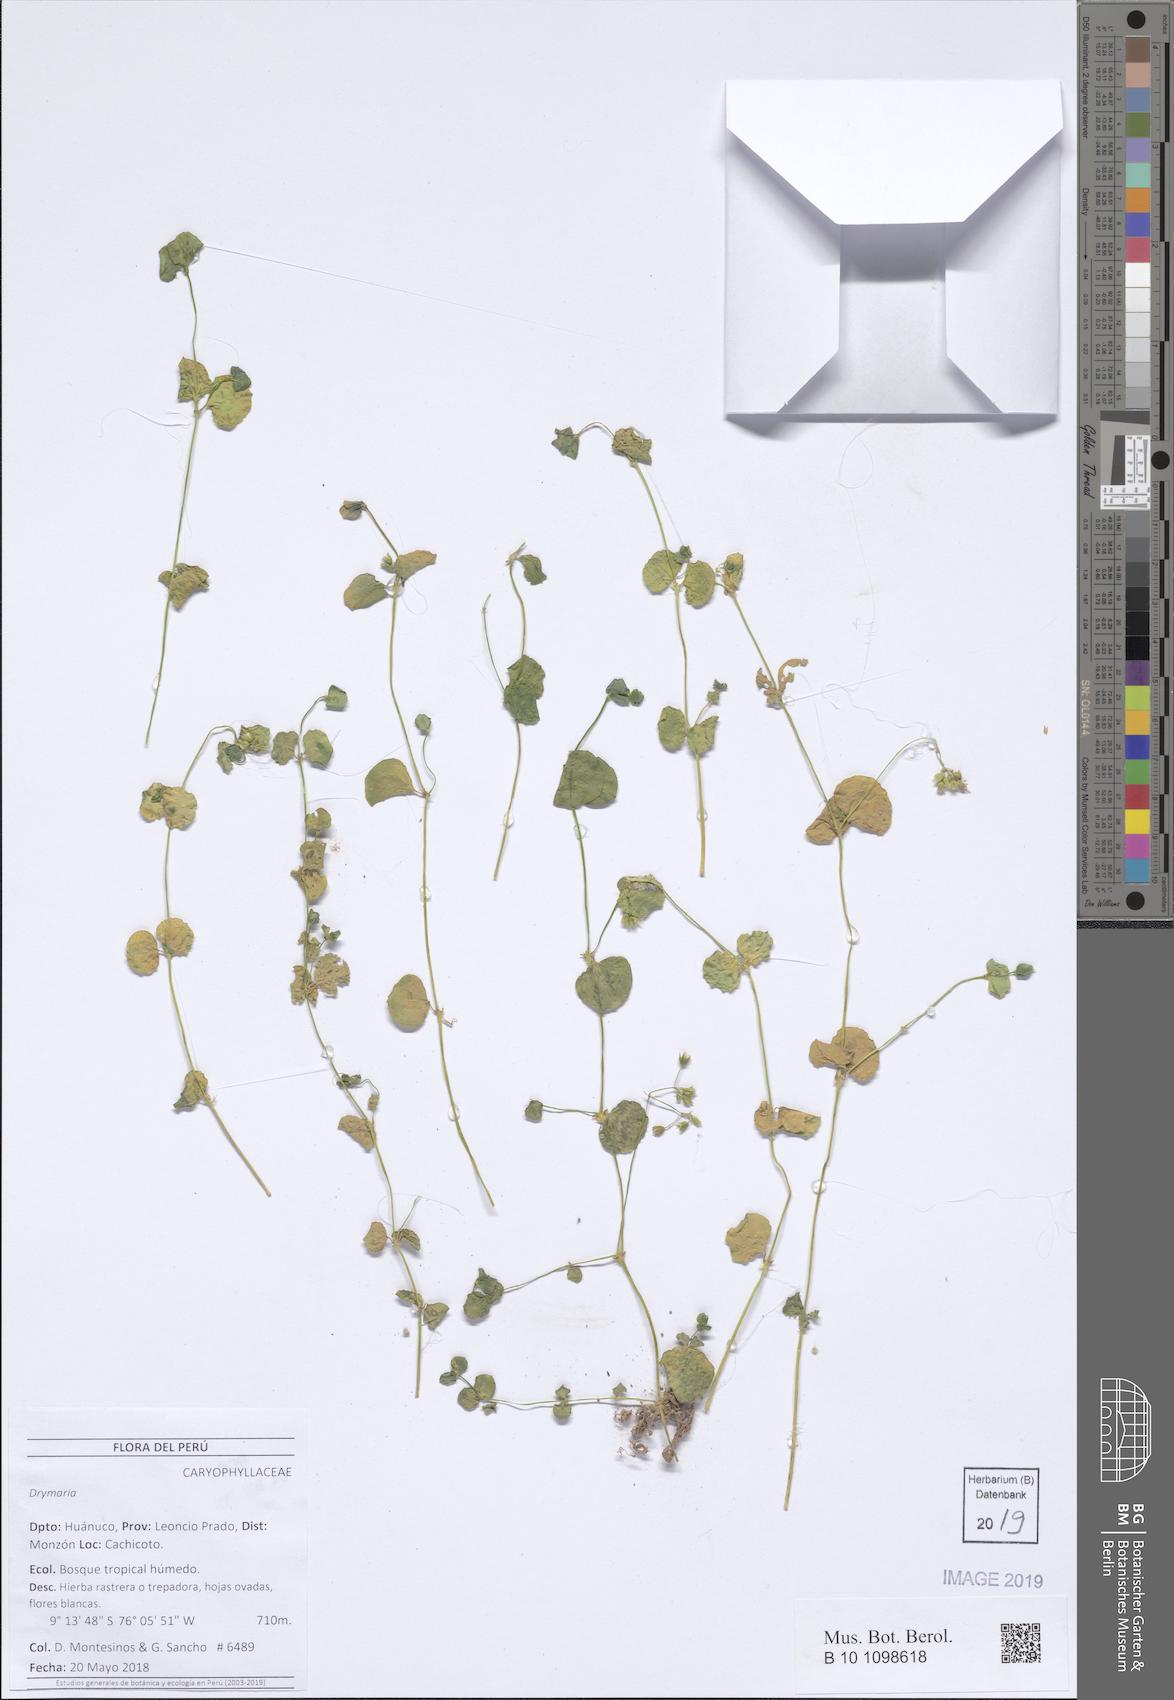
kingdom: Plantae
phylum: Tracheophyta
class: Magnoliopsida
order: Caryophyllales
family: Caryophyllaceae
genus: Drymaria
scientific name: Drymaria
